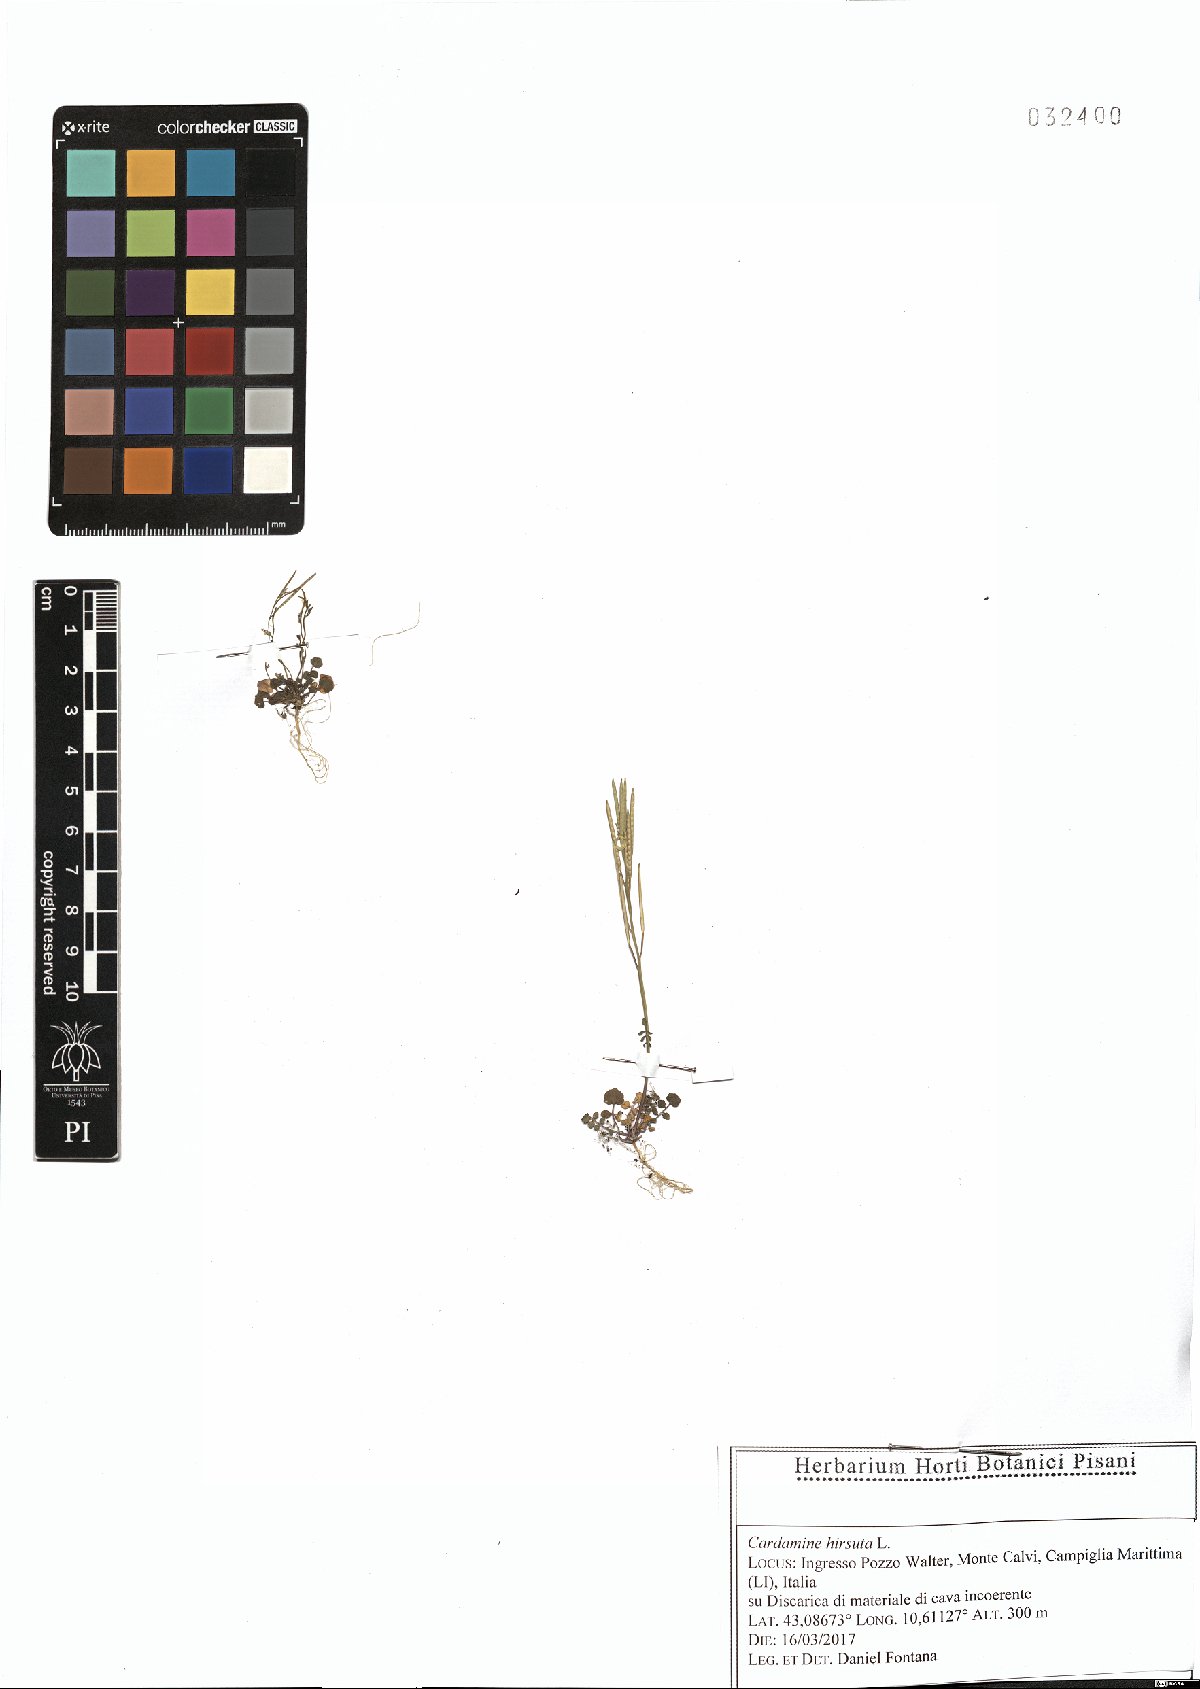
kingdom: Plantae
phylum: Tracheophyta
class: Magnoliopsida
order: Brassicales
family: Brassicaceae
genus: Cardamine
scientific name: Cardamine hirsuta
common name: Hairy bittercress
